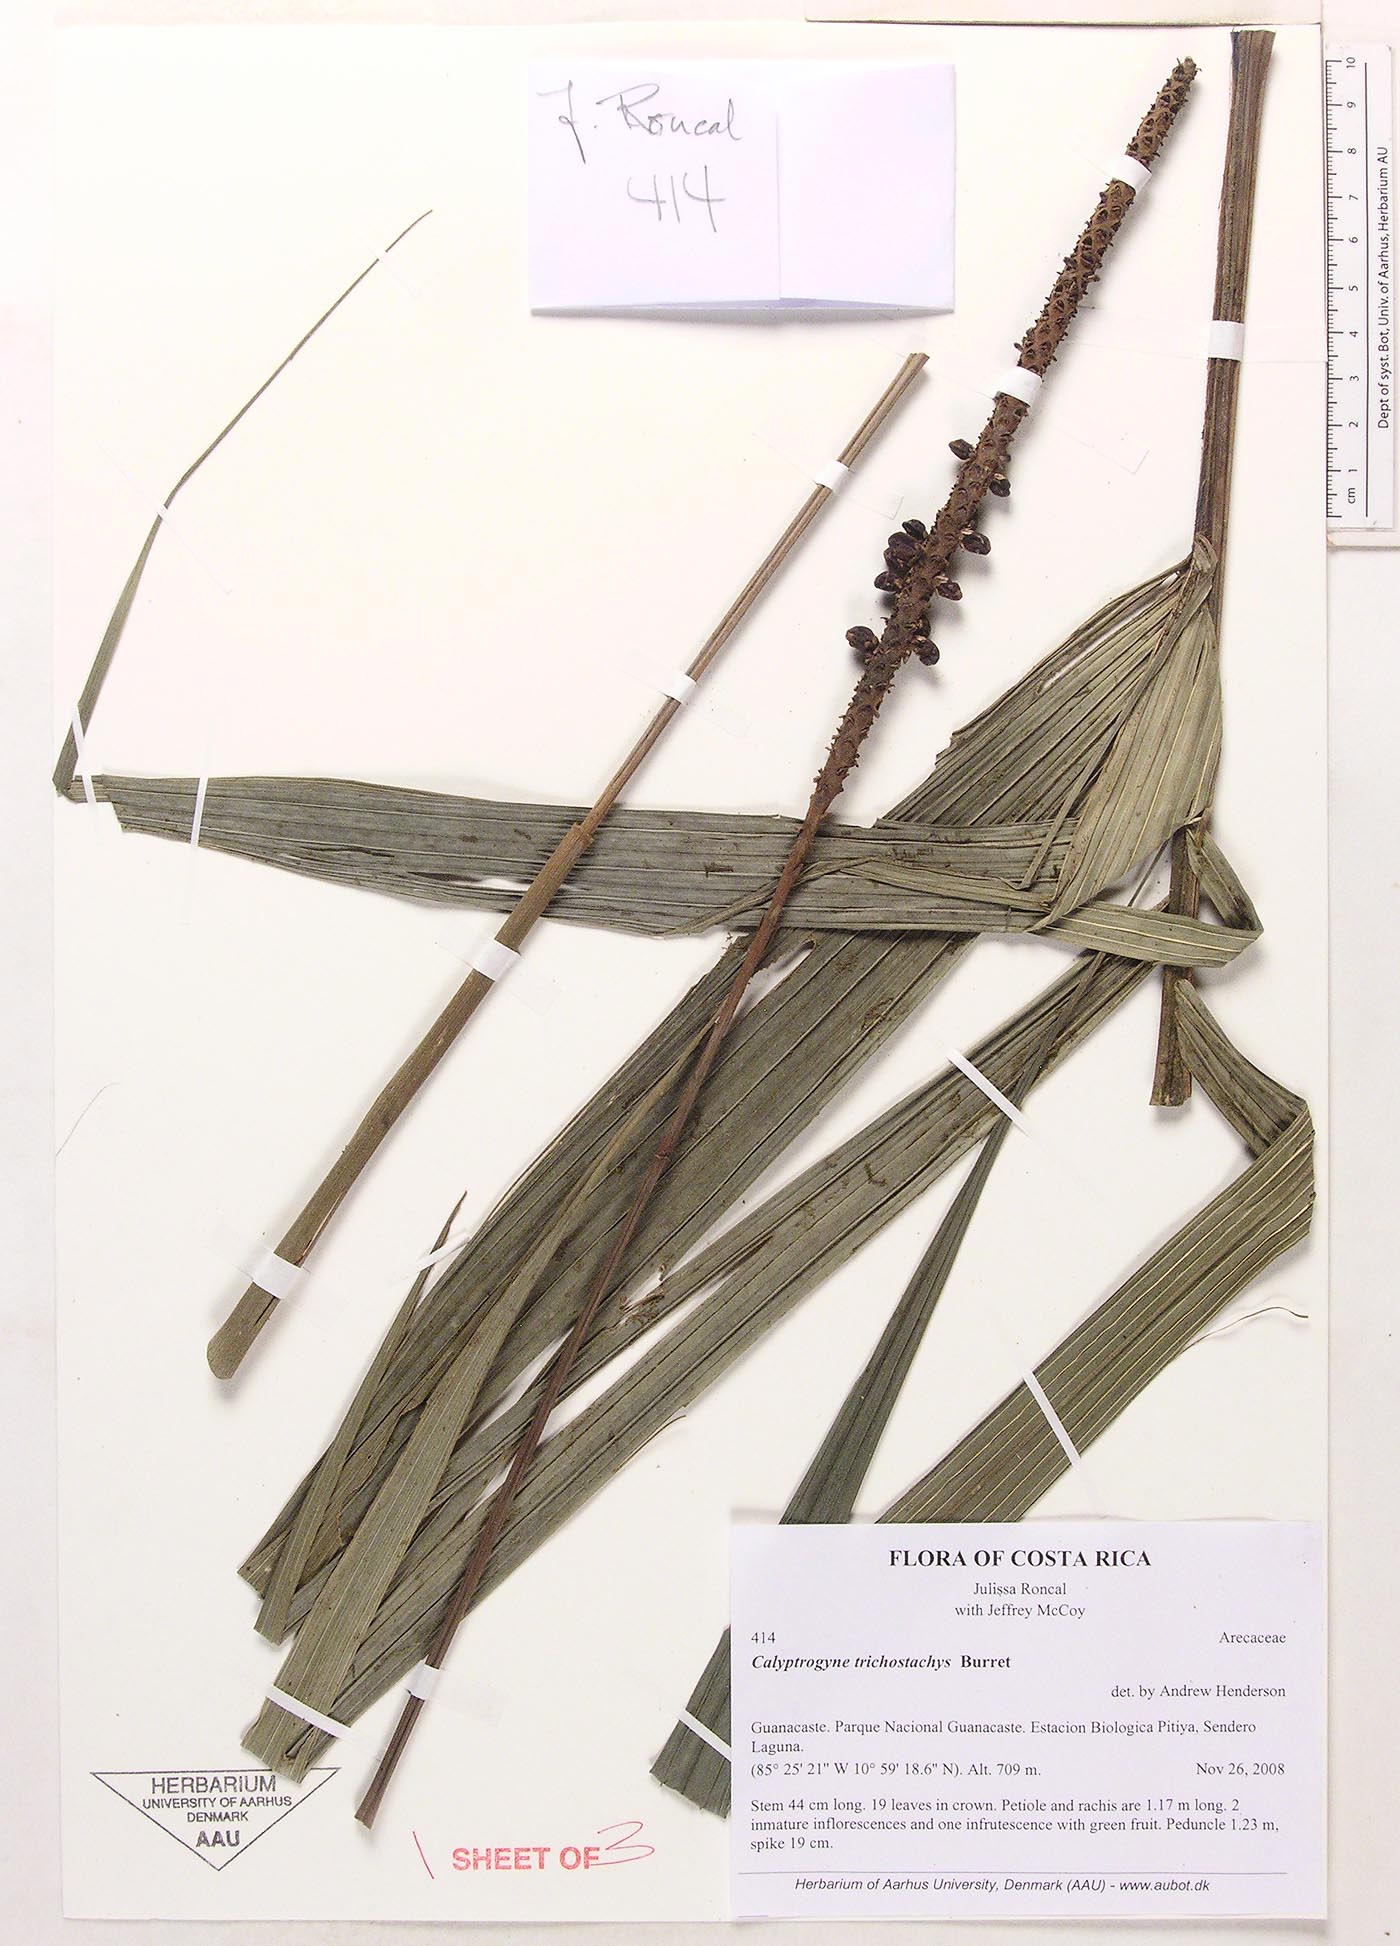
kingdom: Plantae
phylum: Tracheophyta
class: Liliopsida
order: Arecales
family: Arecaceae
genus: Calyptrogyne
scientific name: Calyptrogyne trichostachys
